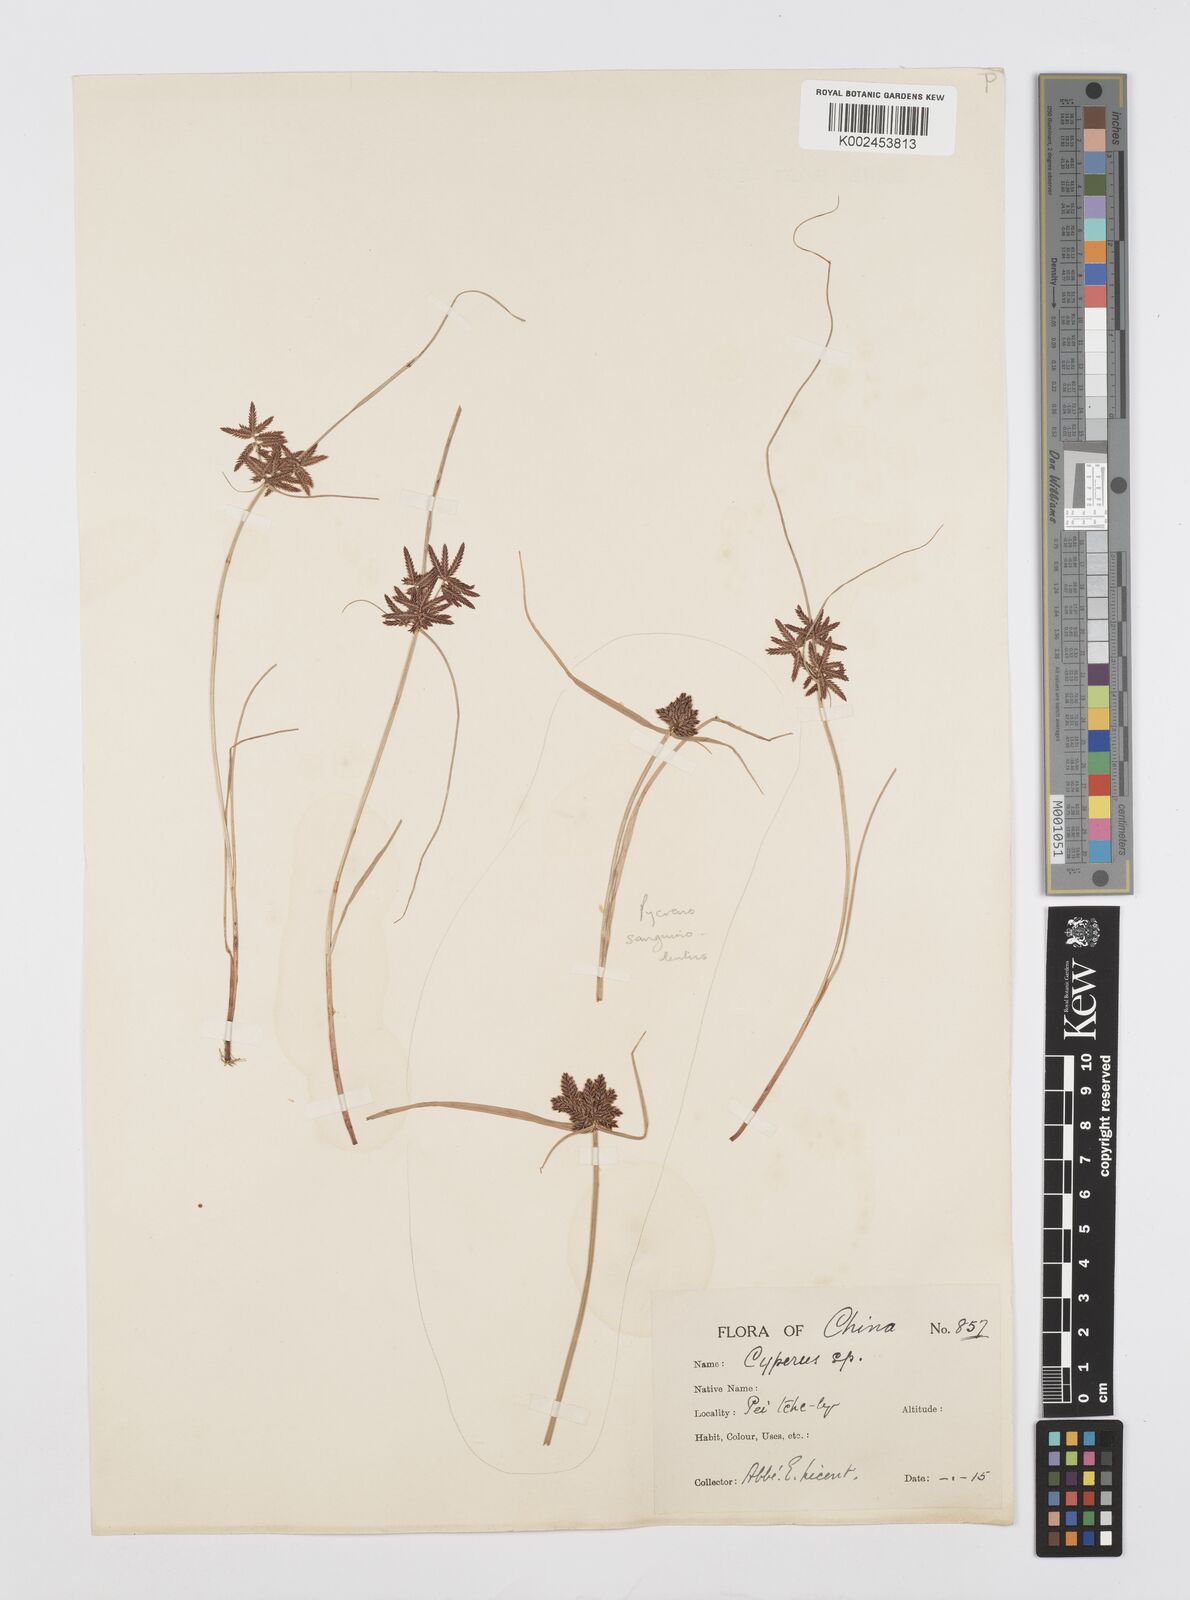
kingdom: Plantae
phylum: Tracheophyta
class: Liliopsida
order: Poales
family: Cyperaceae
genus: Cyperus
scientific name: Cyperus flavidus
